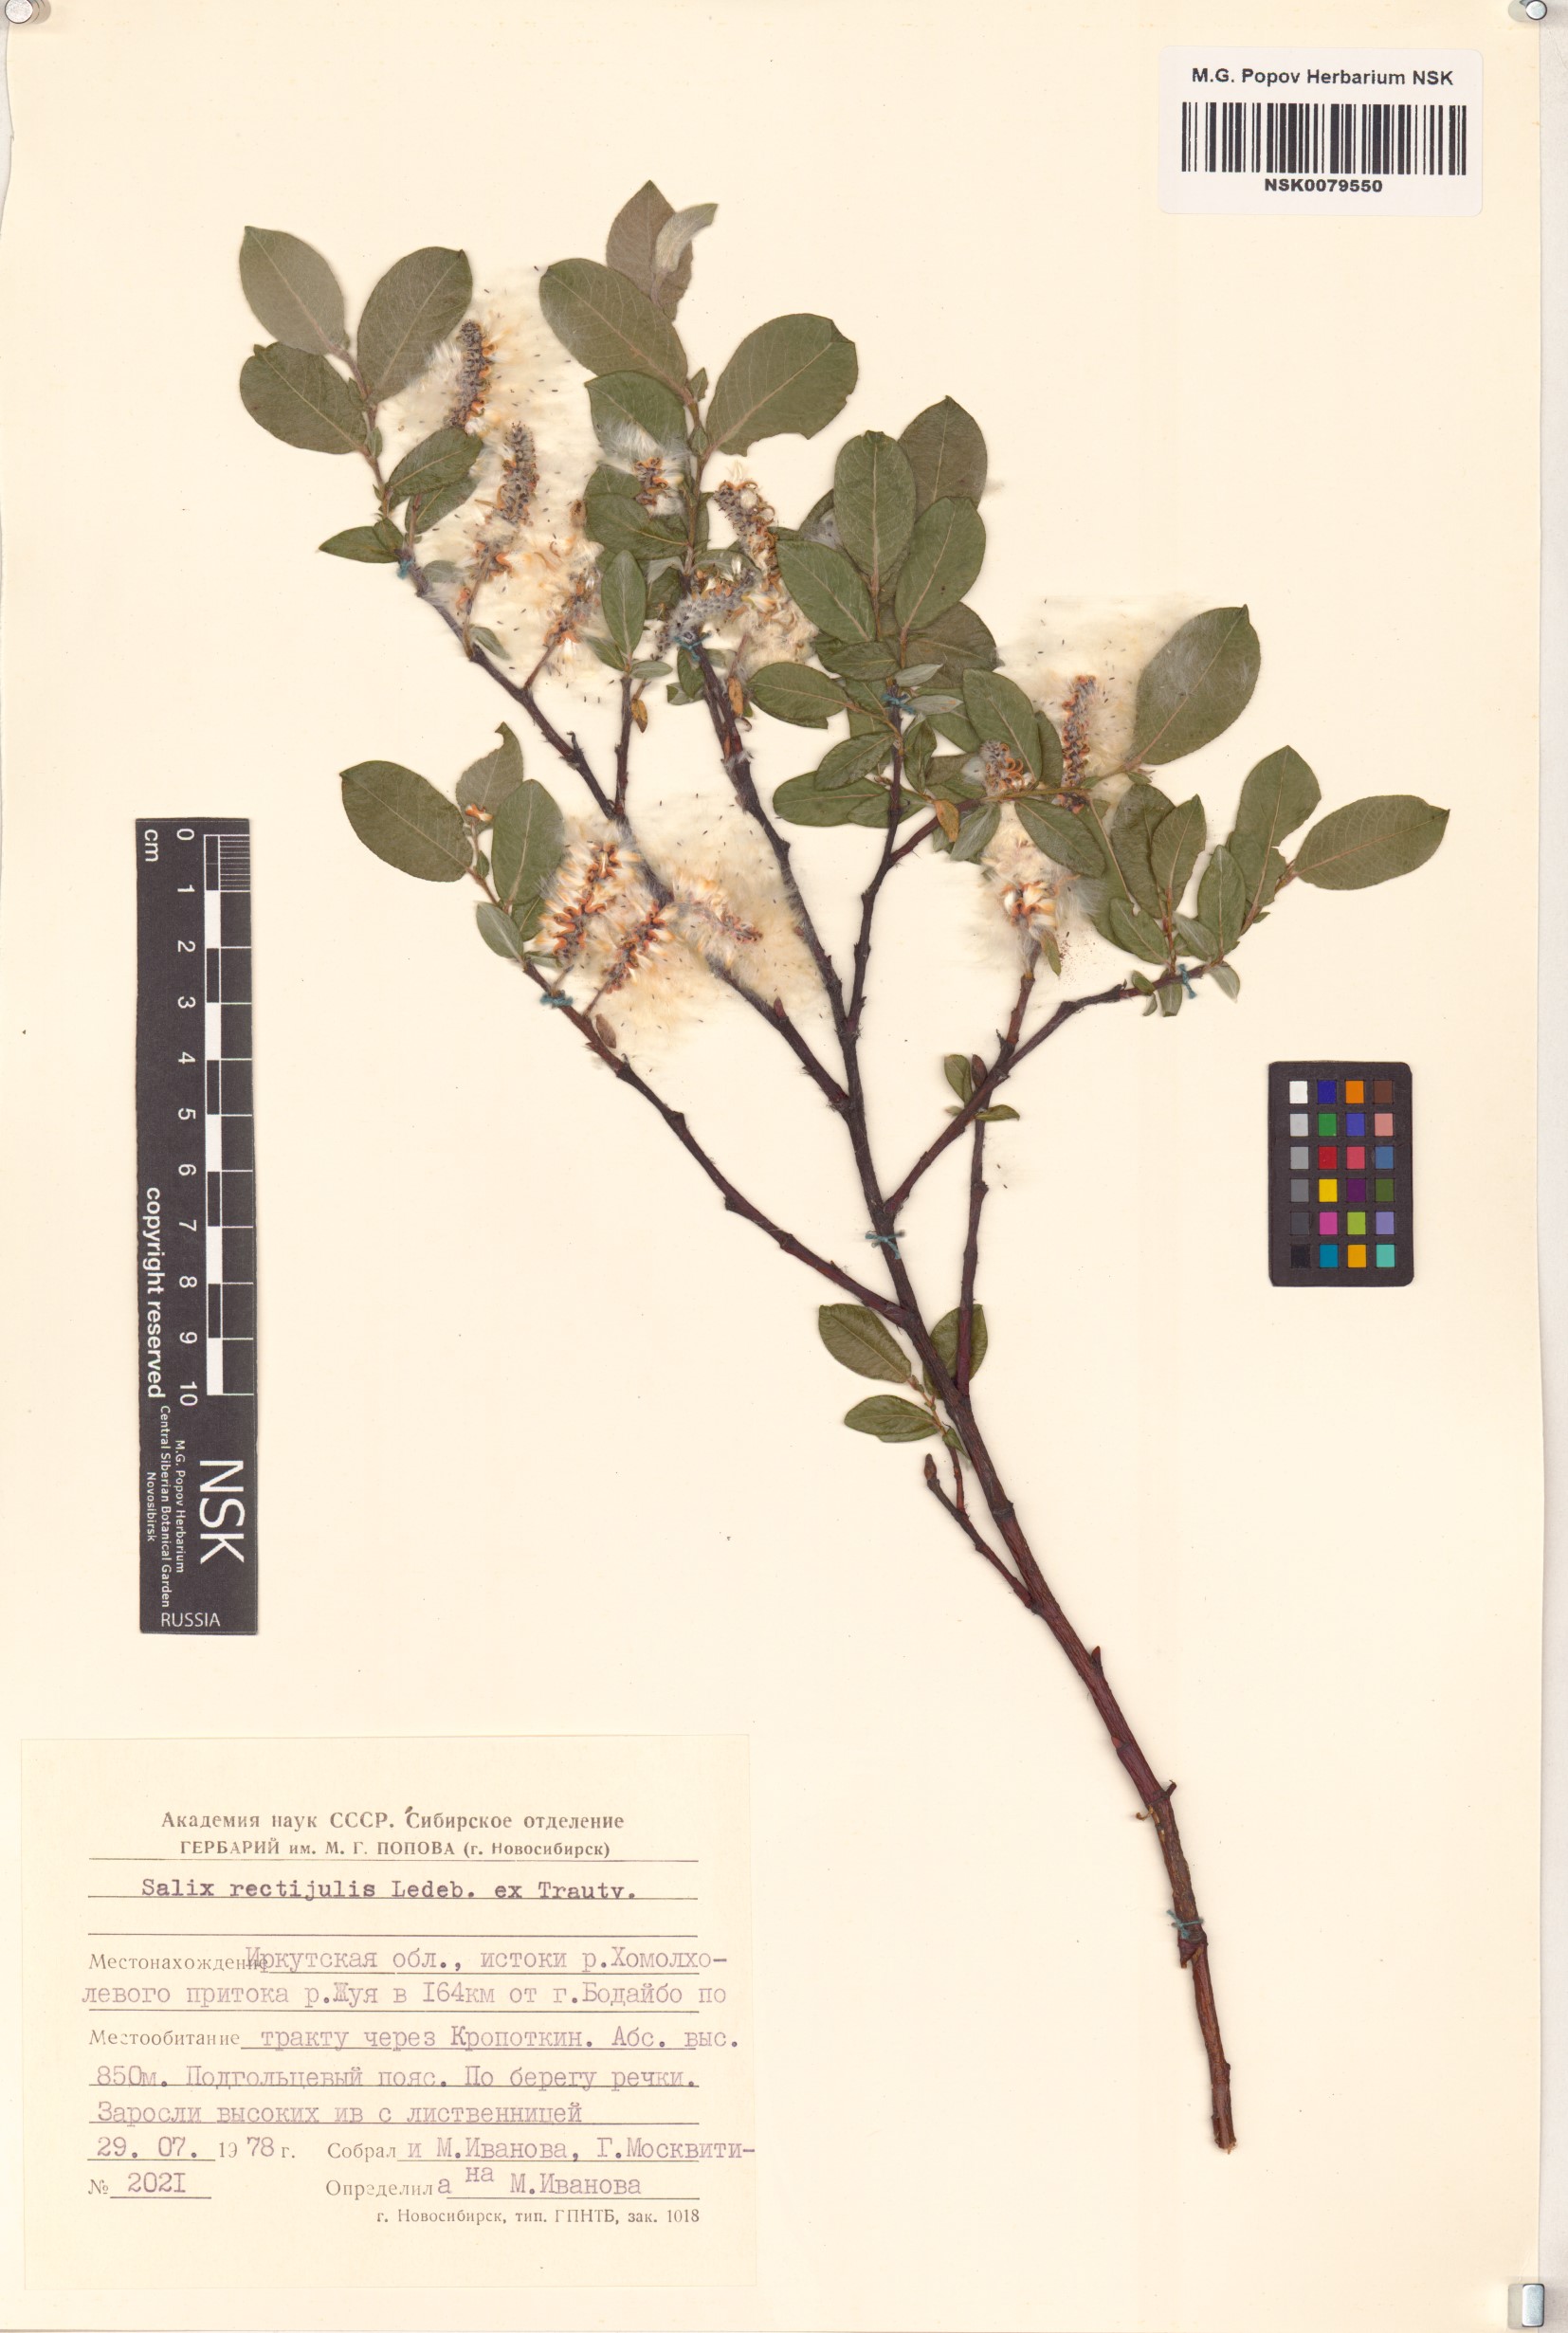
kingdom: Plantae
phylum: Tracheophyta
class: Magnoliopsida
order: Malpighiales
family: Salicaceae
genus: Salix
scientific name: Salix rectijulis
